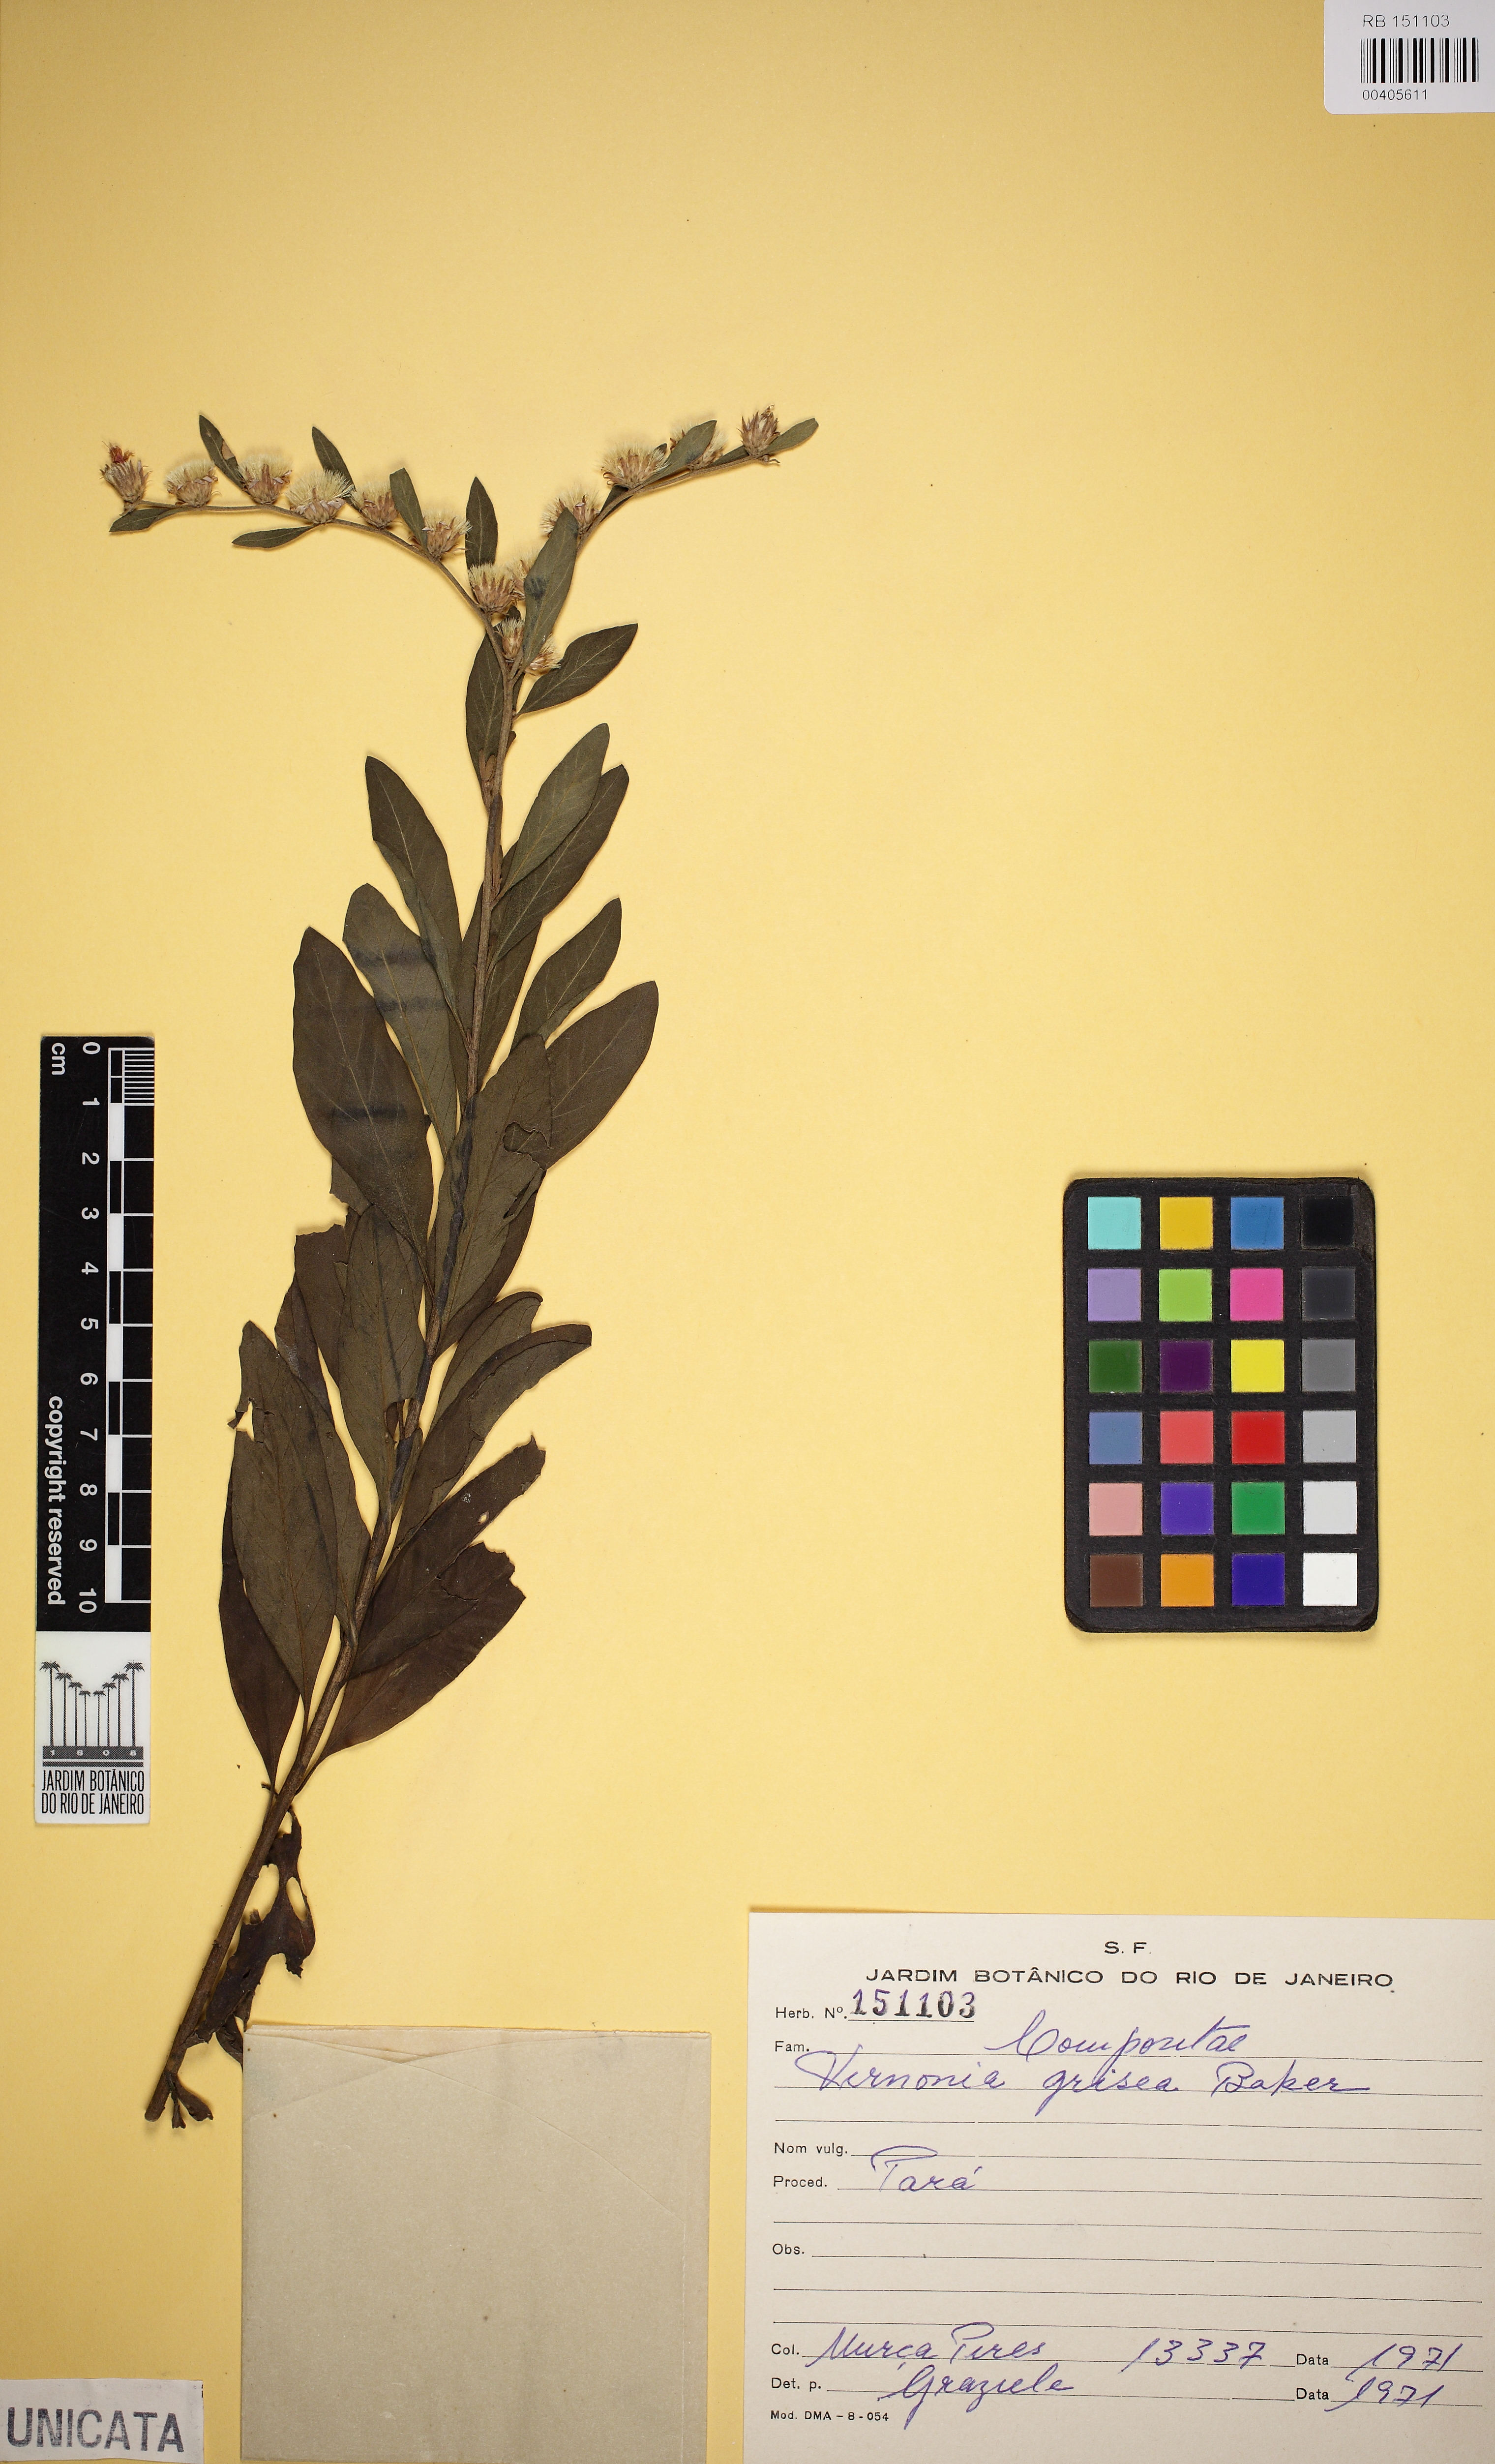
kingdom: Plantae
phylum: Tracheophyta
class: Magnoliopsida
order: Asterales
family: Asteraceae
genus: Lepidaploa
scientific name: Lepidaploa grisea
